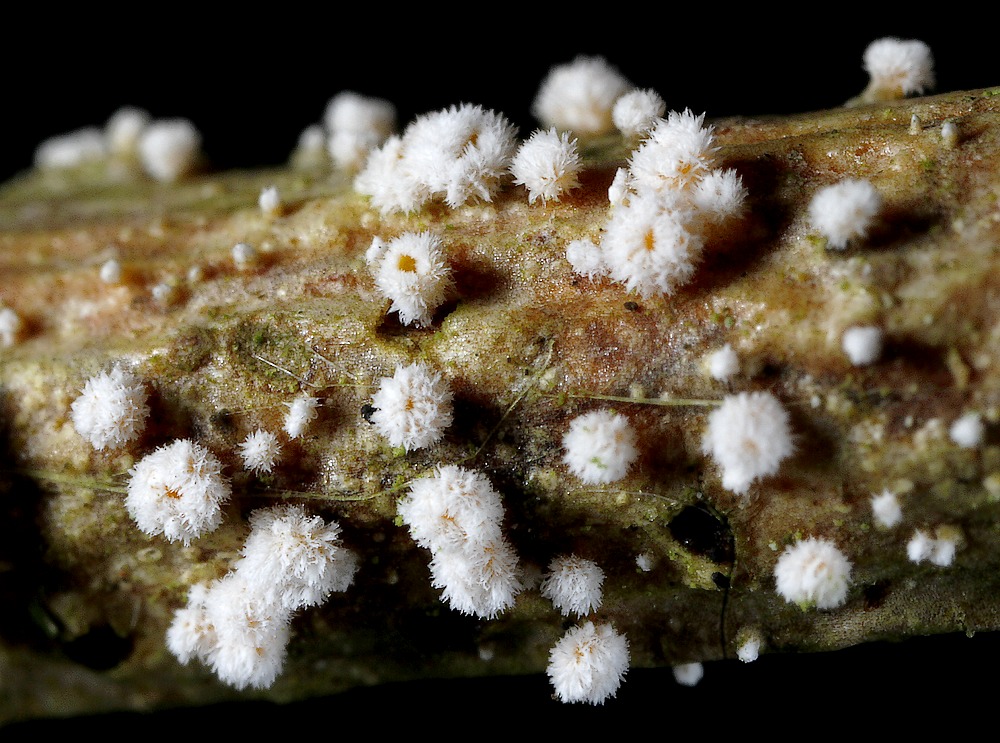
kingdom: Fungi
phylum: Ascomycota
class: Leotiomycetes
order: Helotiales
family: Lachnaceae
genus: Capitotricha
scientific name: Capitotricha bicolor
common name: prægtig frynseskive
